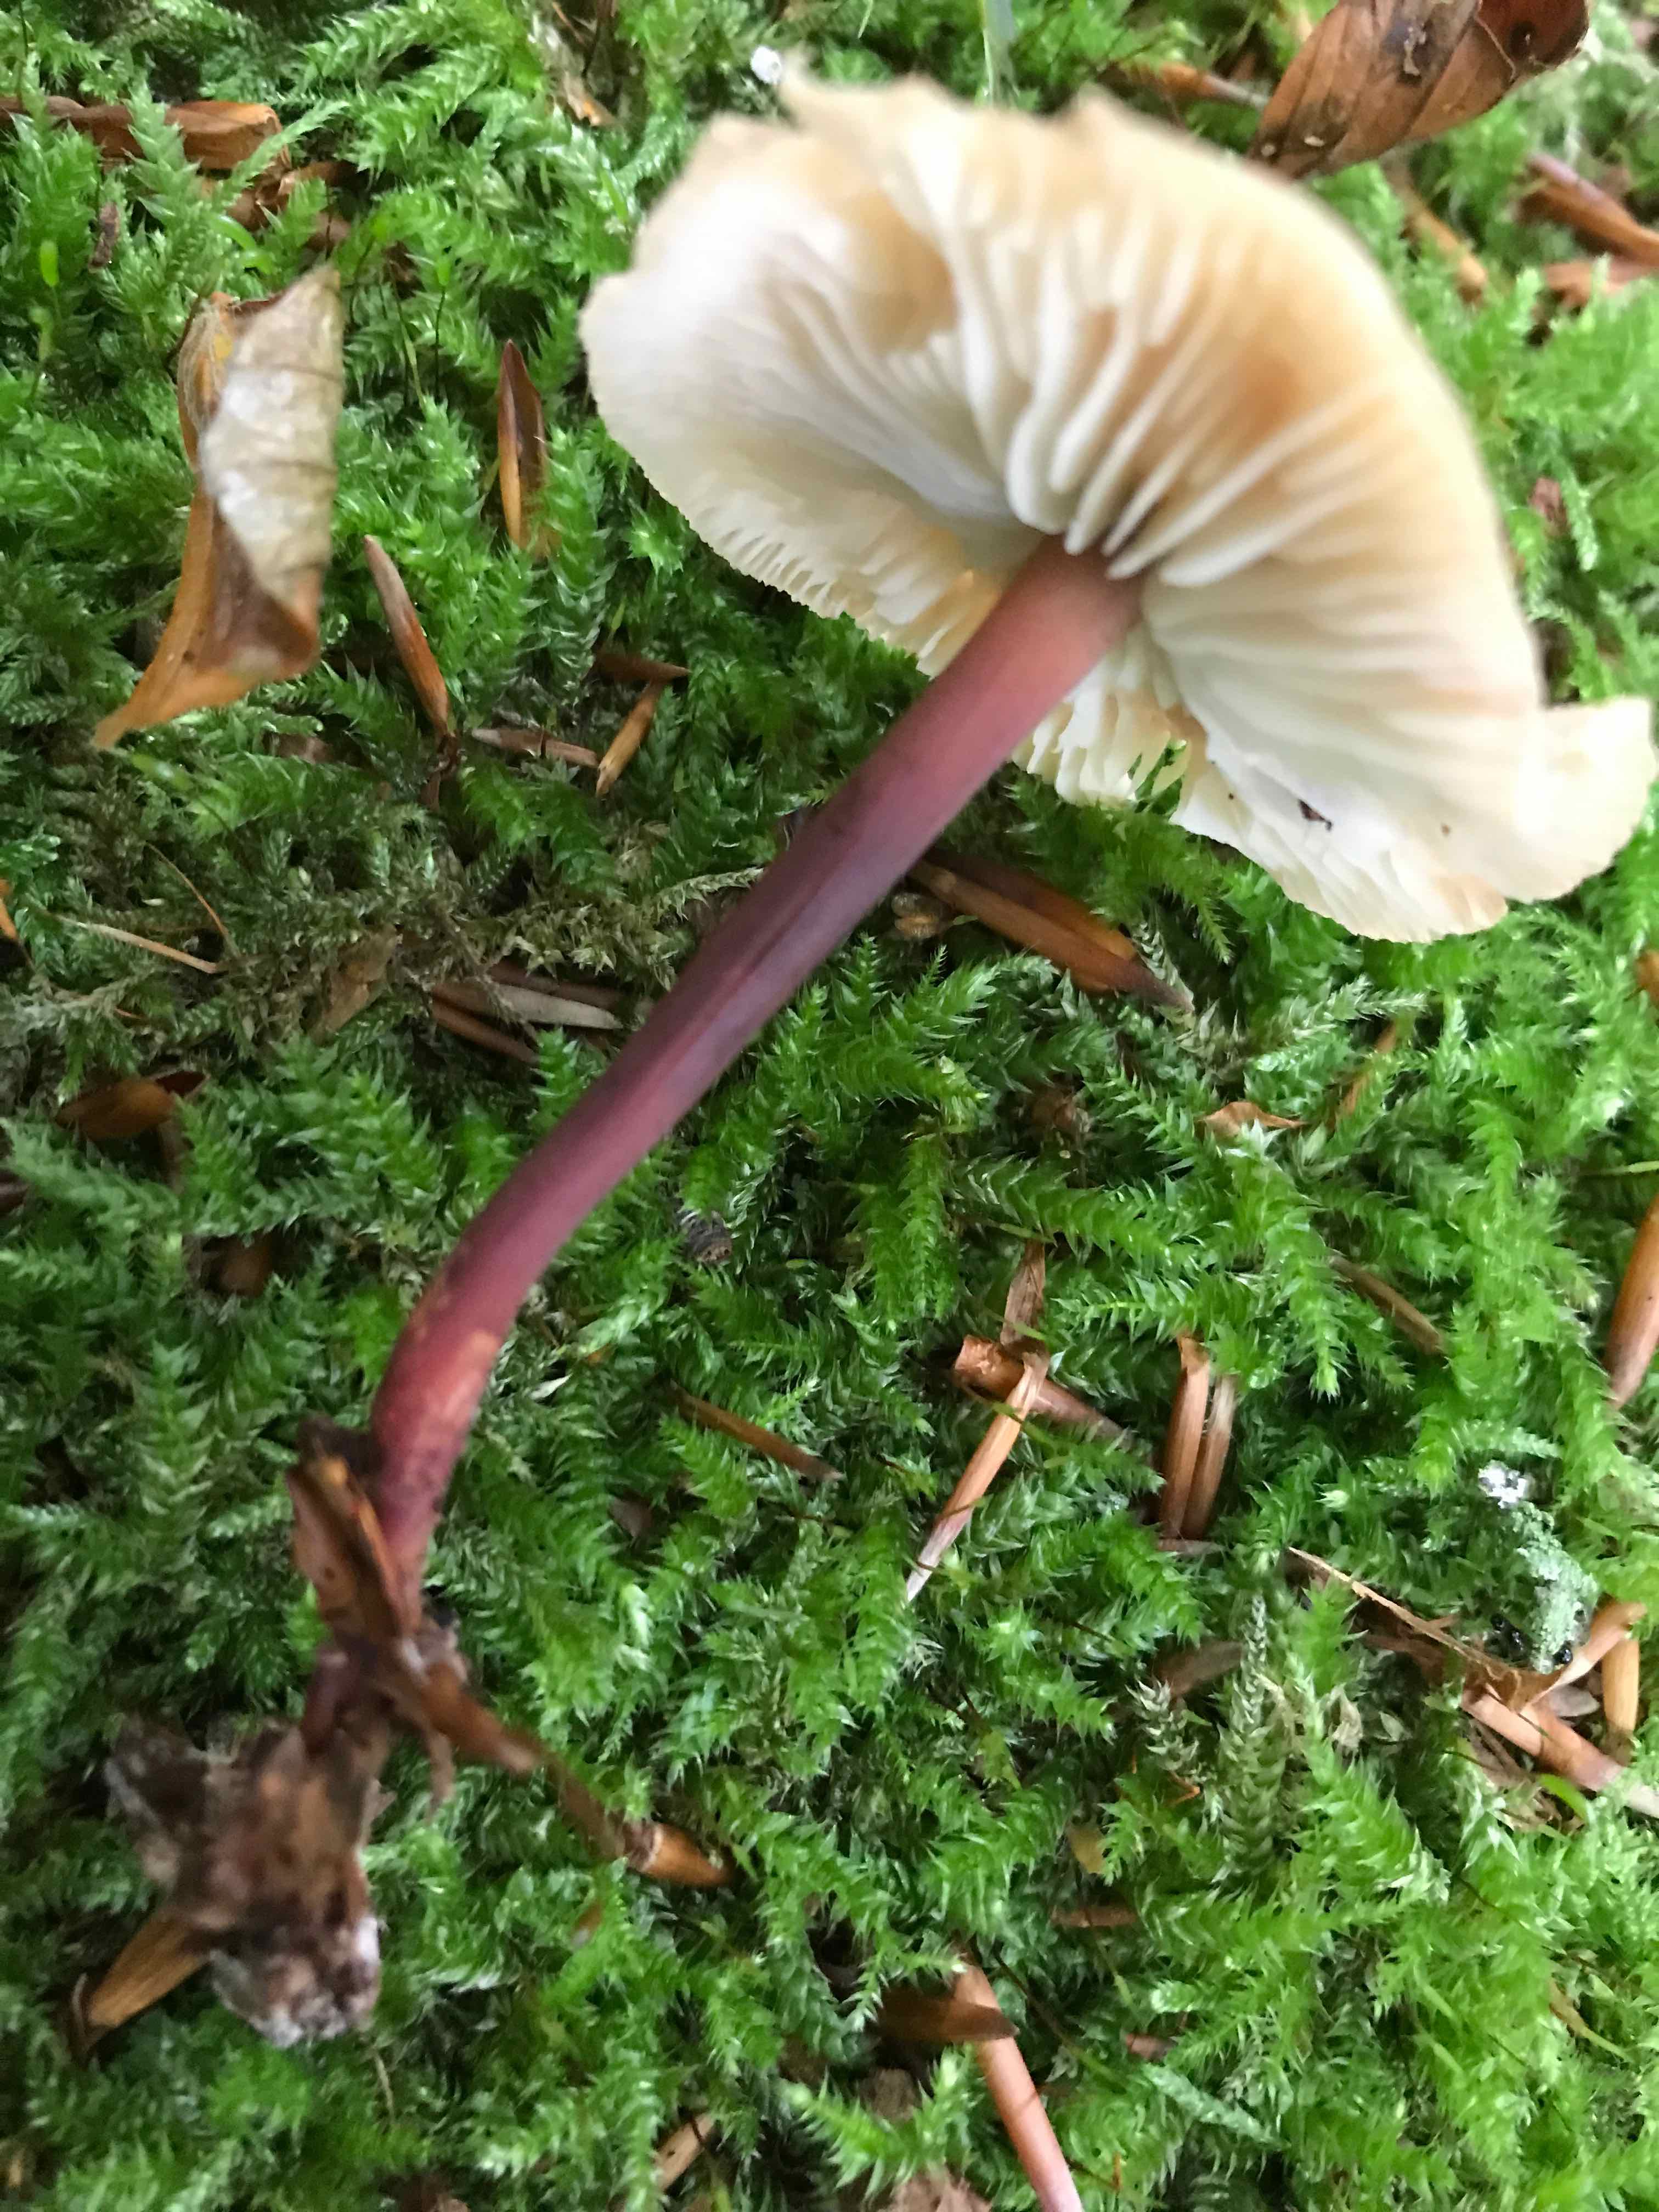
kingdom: Fungi
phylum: Basidiomycota
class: Agaricomycetes
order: Agaricales
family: Omphalotaceae
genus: Gymnopus
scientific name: Gymnopus erythropus
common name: rødstokket fladhat
